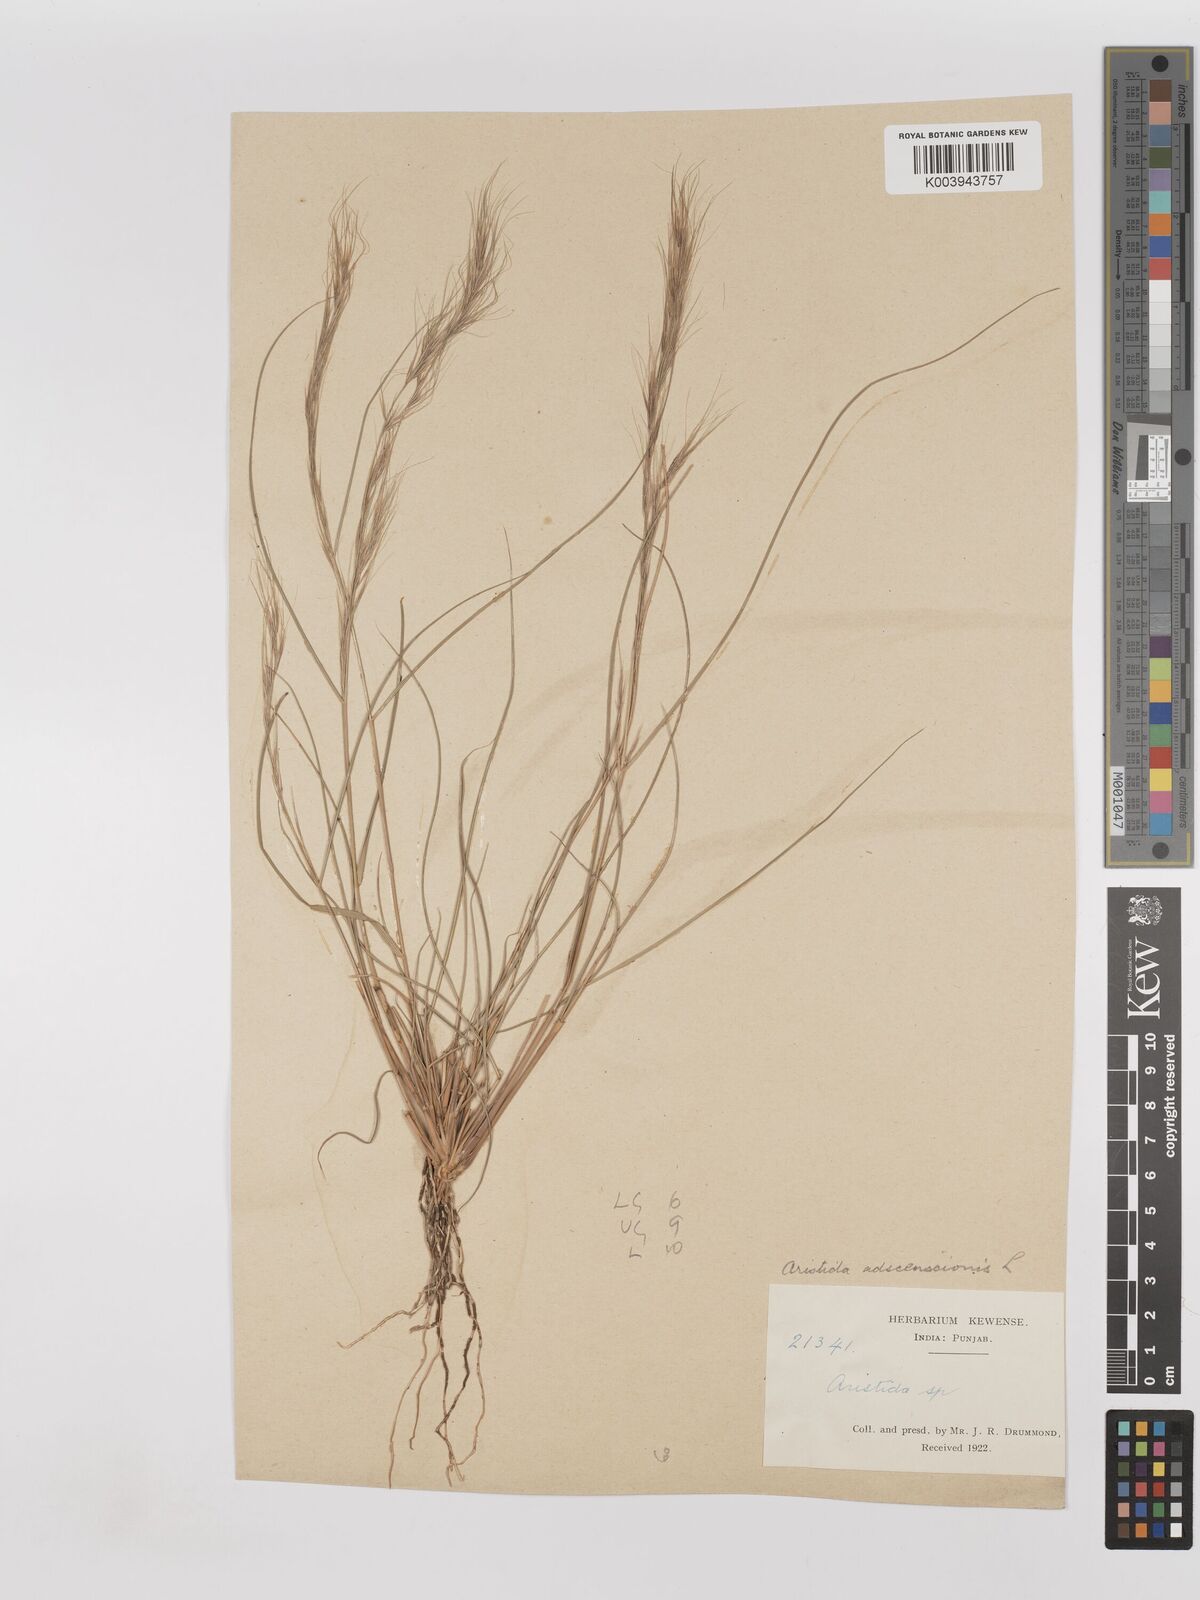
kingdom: Plantae
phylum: Tracheophyta
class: Liliopsida
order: Poales
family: Poaceae
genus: Aristida
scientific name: Aristida adscensionis
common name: Sixweeks threeawn
